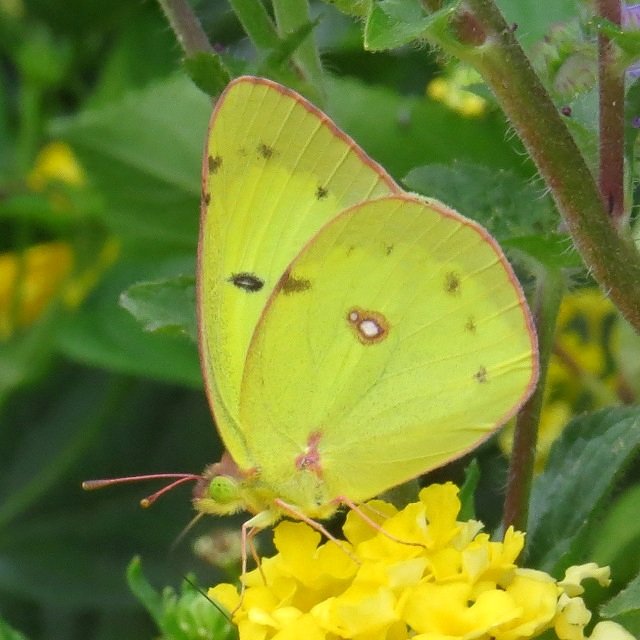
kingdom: Animalia
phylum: Arthropoda
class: Insecta
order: Lepidoptera
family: Pieridae
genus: Colias
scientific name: Colias philodice
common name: Clouded Sulphur
